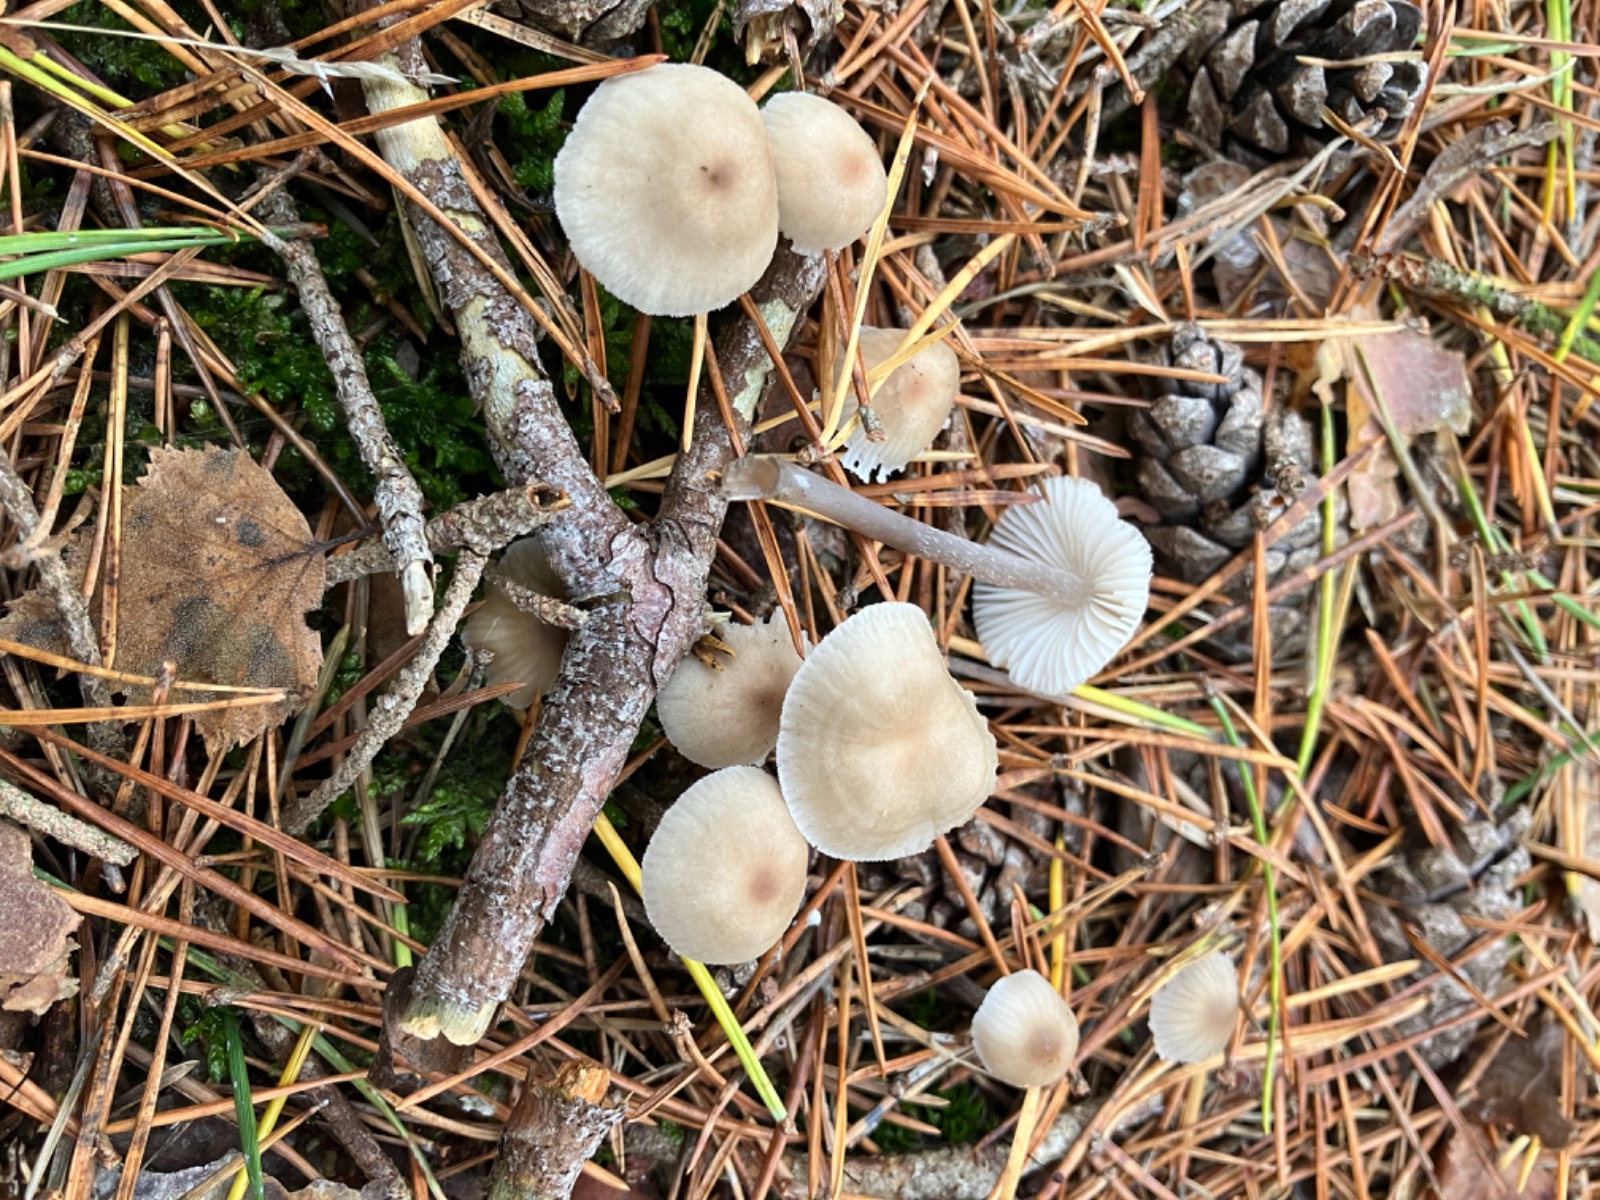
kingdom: Fungi
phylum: Basidiomycota
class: Agaricomycetes
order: Agaricales
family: Mycenaceae
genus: Mycena
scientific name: Mycena zephirus
